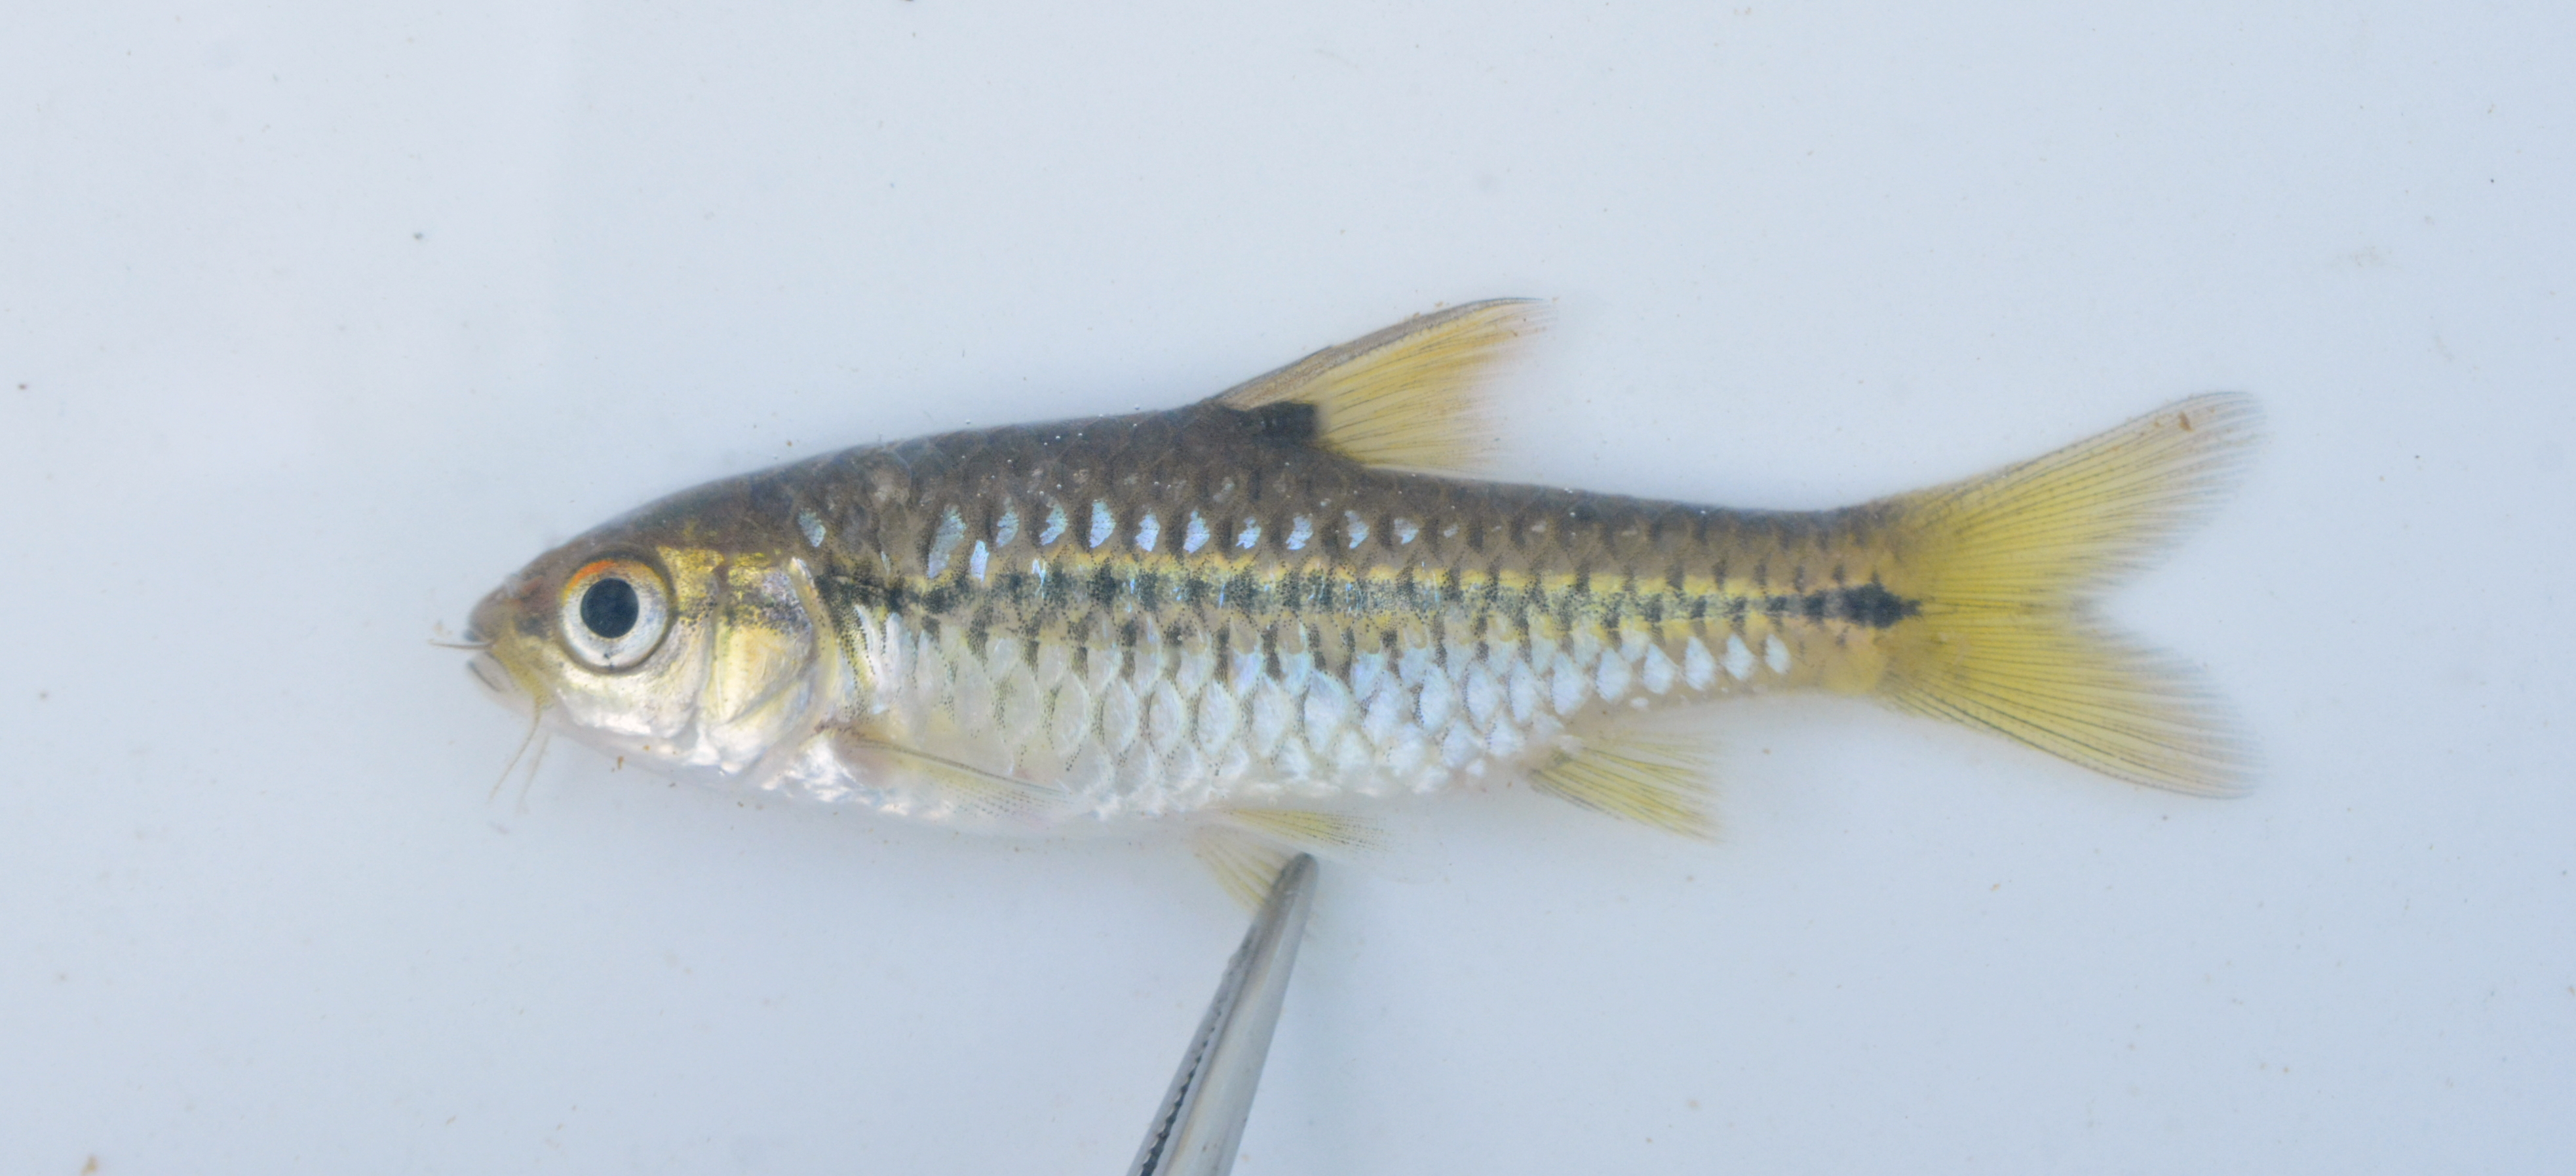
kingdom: Animalia
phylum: Chordata
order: Cypriniformes
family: Cyprinidae
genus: Enteromius
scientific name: Enteromius kerstenii
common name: Redspot barb
